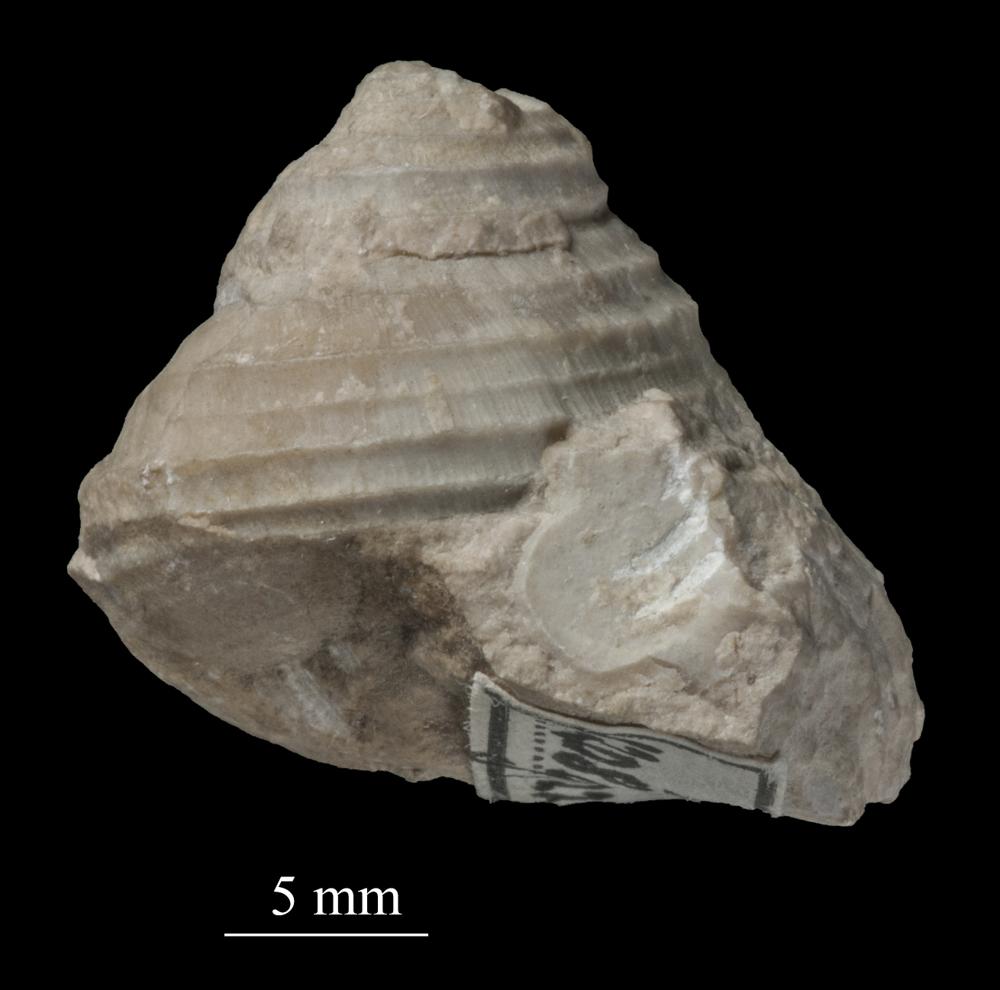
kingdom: Animalia
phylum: Mollusca
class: Gastropoda
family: Platyceratidae
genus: Cyclonema
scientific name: Cyclonema Turbo rupestre
